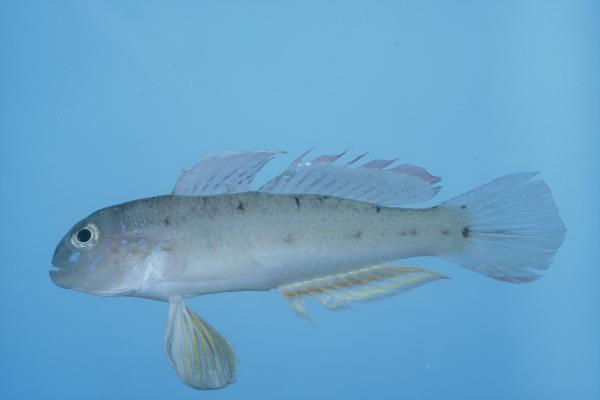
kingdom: Animalia
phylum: Chordata
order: Perciformes
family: Gobiidae
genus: Oplopomus
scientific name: Oplopomus oplopomus
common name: Spinecheek goby
